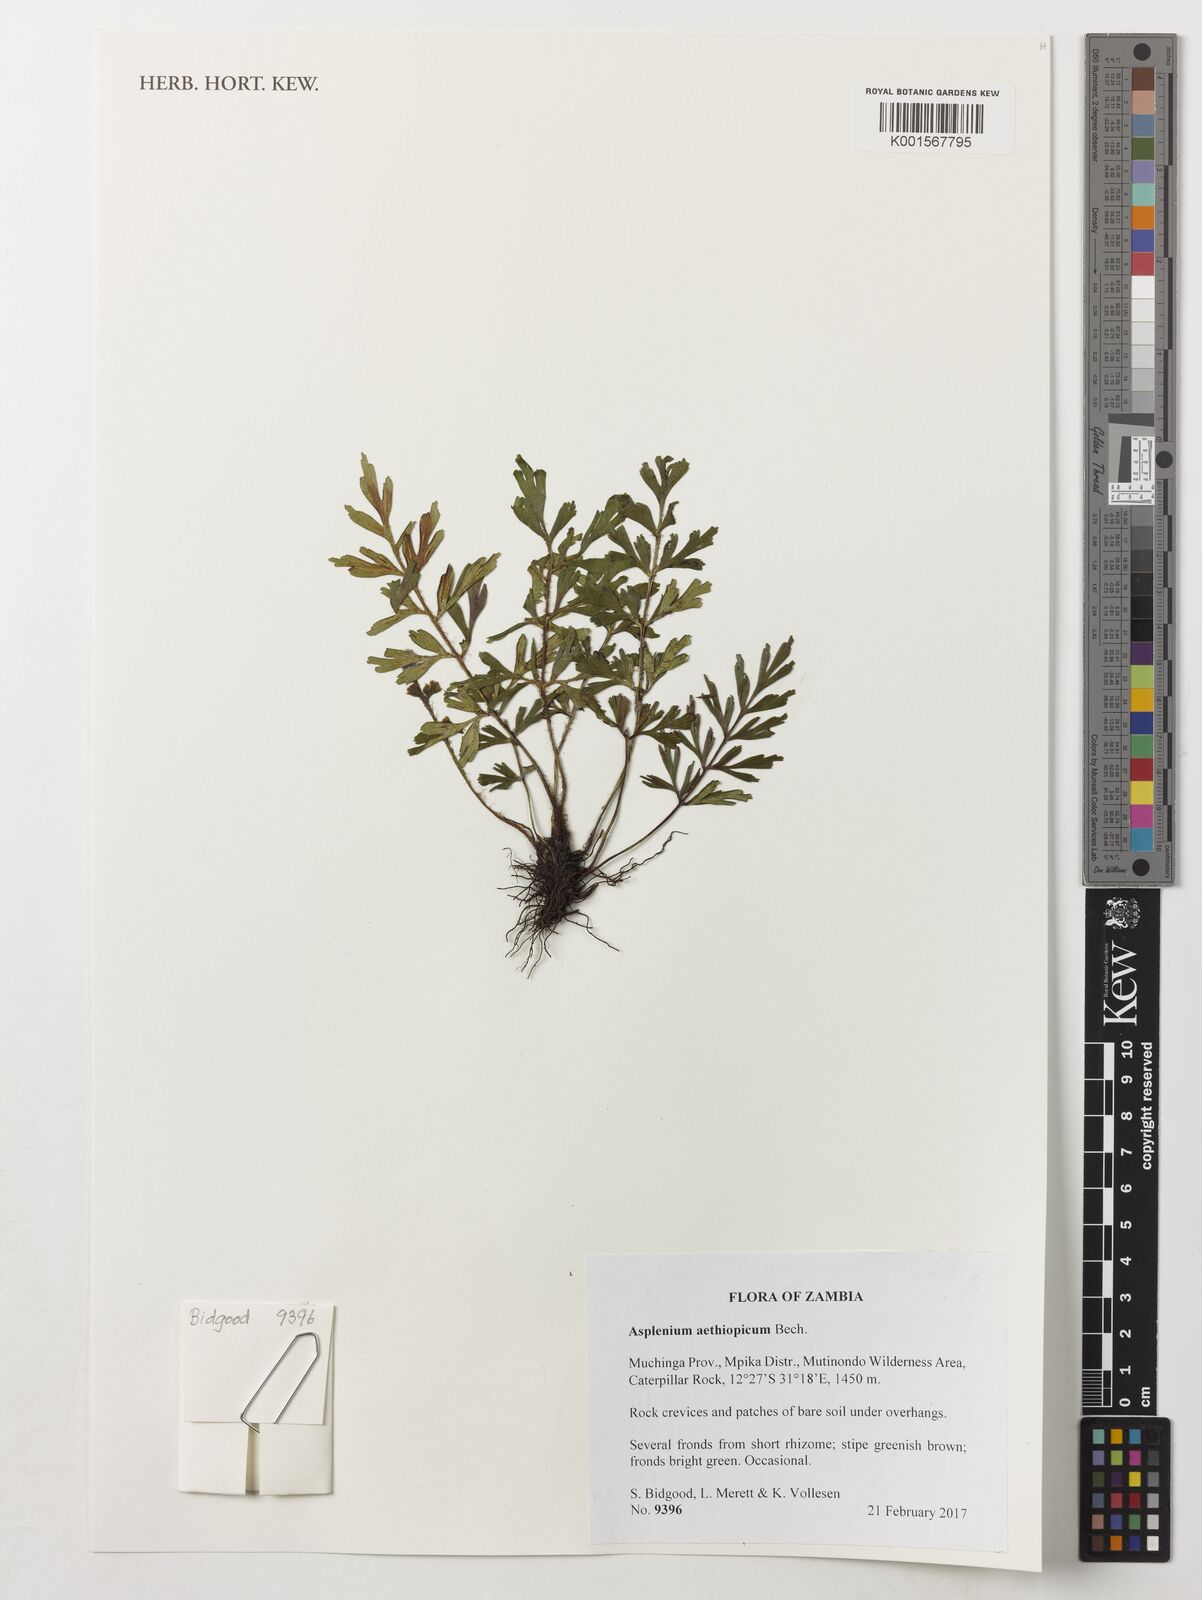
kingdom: Plantae
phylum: Tracheophyta
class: Polypodiopsida
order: Polypodiales
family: Aspleniaceae
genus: Asplenium
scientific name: Asplenium aethiopicum
